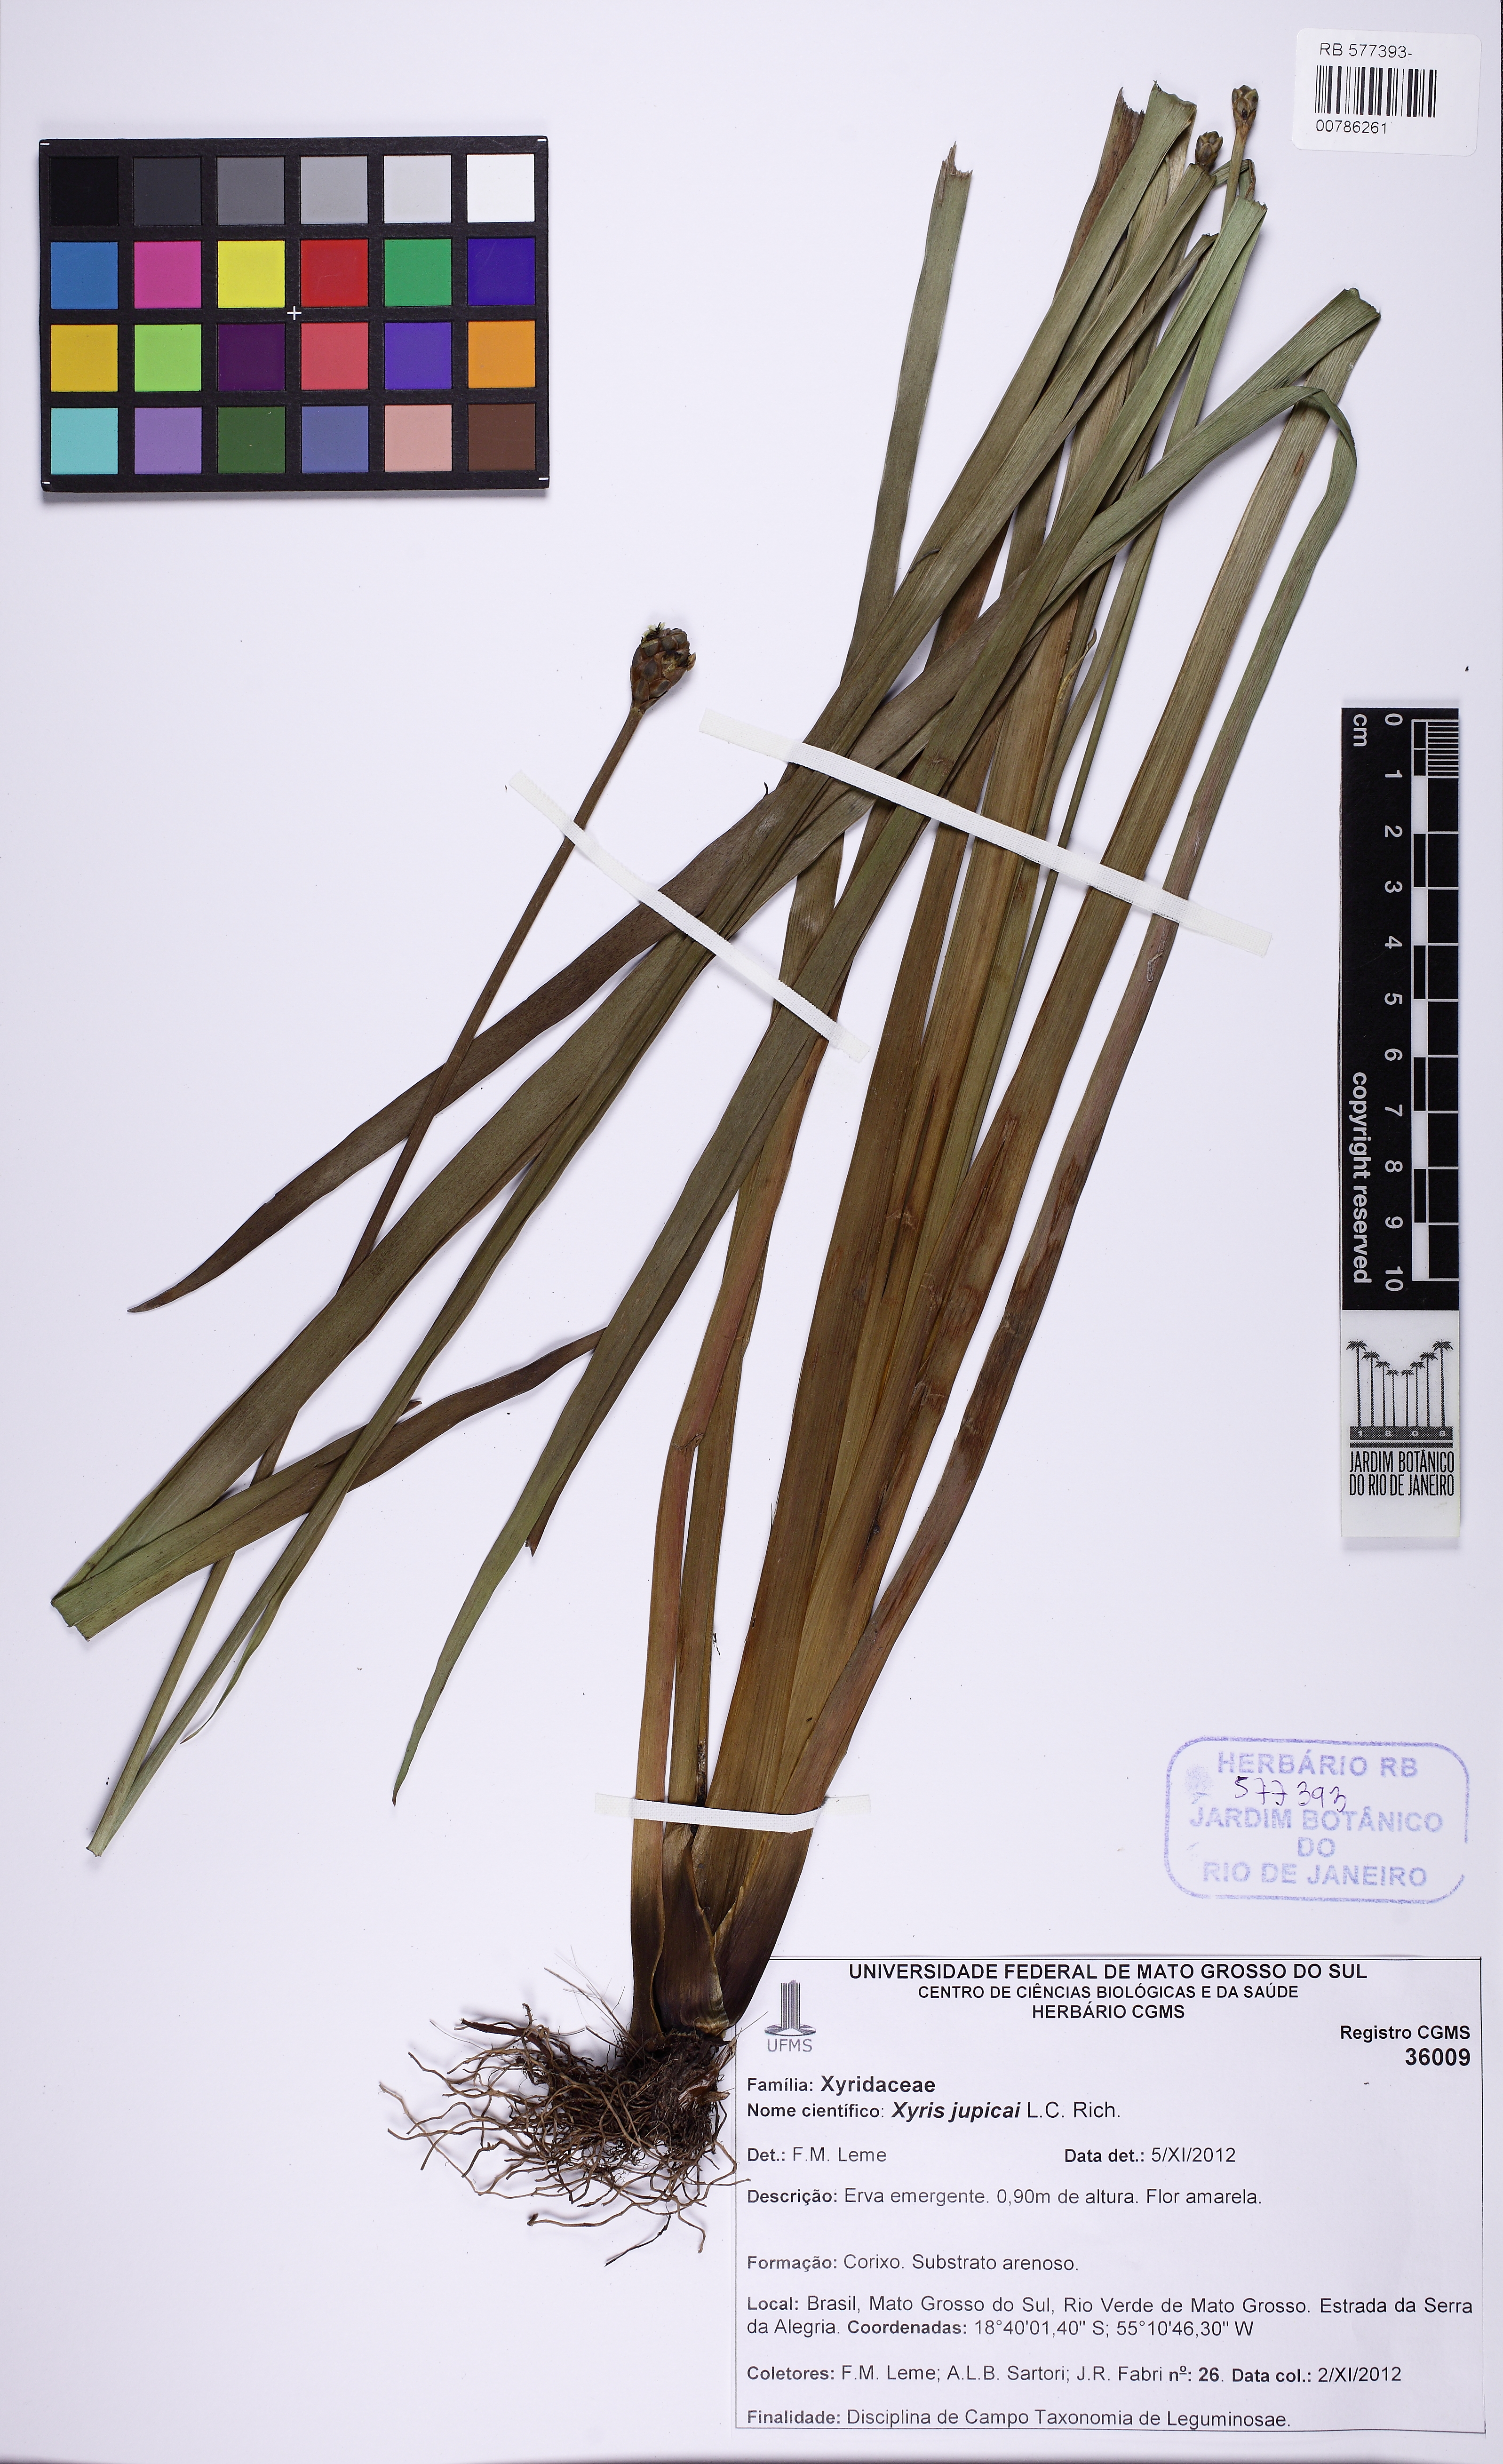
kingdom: Plantae
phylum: Tracheophyta
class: Liliopsida
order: Poales
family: Xyridaceae
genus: Xyris
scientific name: Xyris jupicai
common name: Richard's yelloweyed grass
